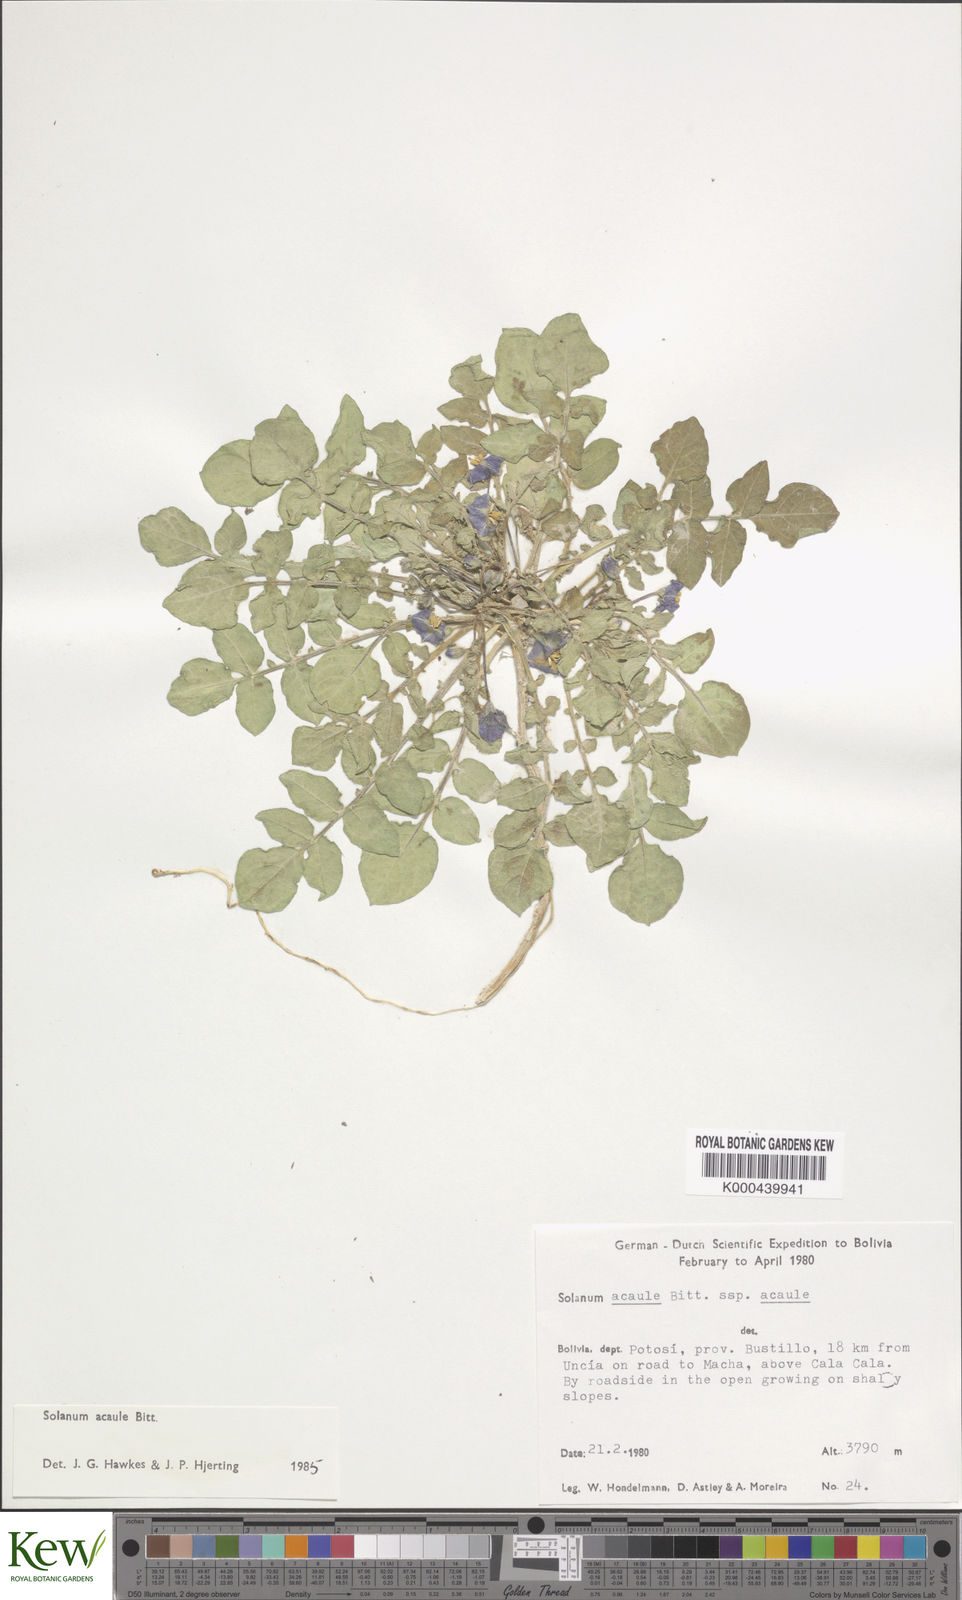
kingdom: Plantae
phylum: Tracheophyta
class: Magnoliopsida
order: Solanales
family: Solanaceae
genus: Solanum
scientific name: Solanum acaule
